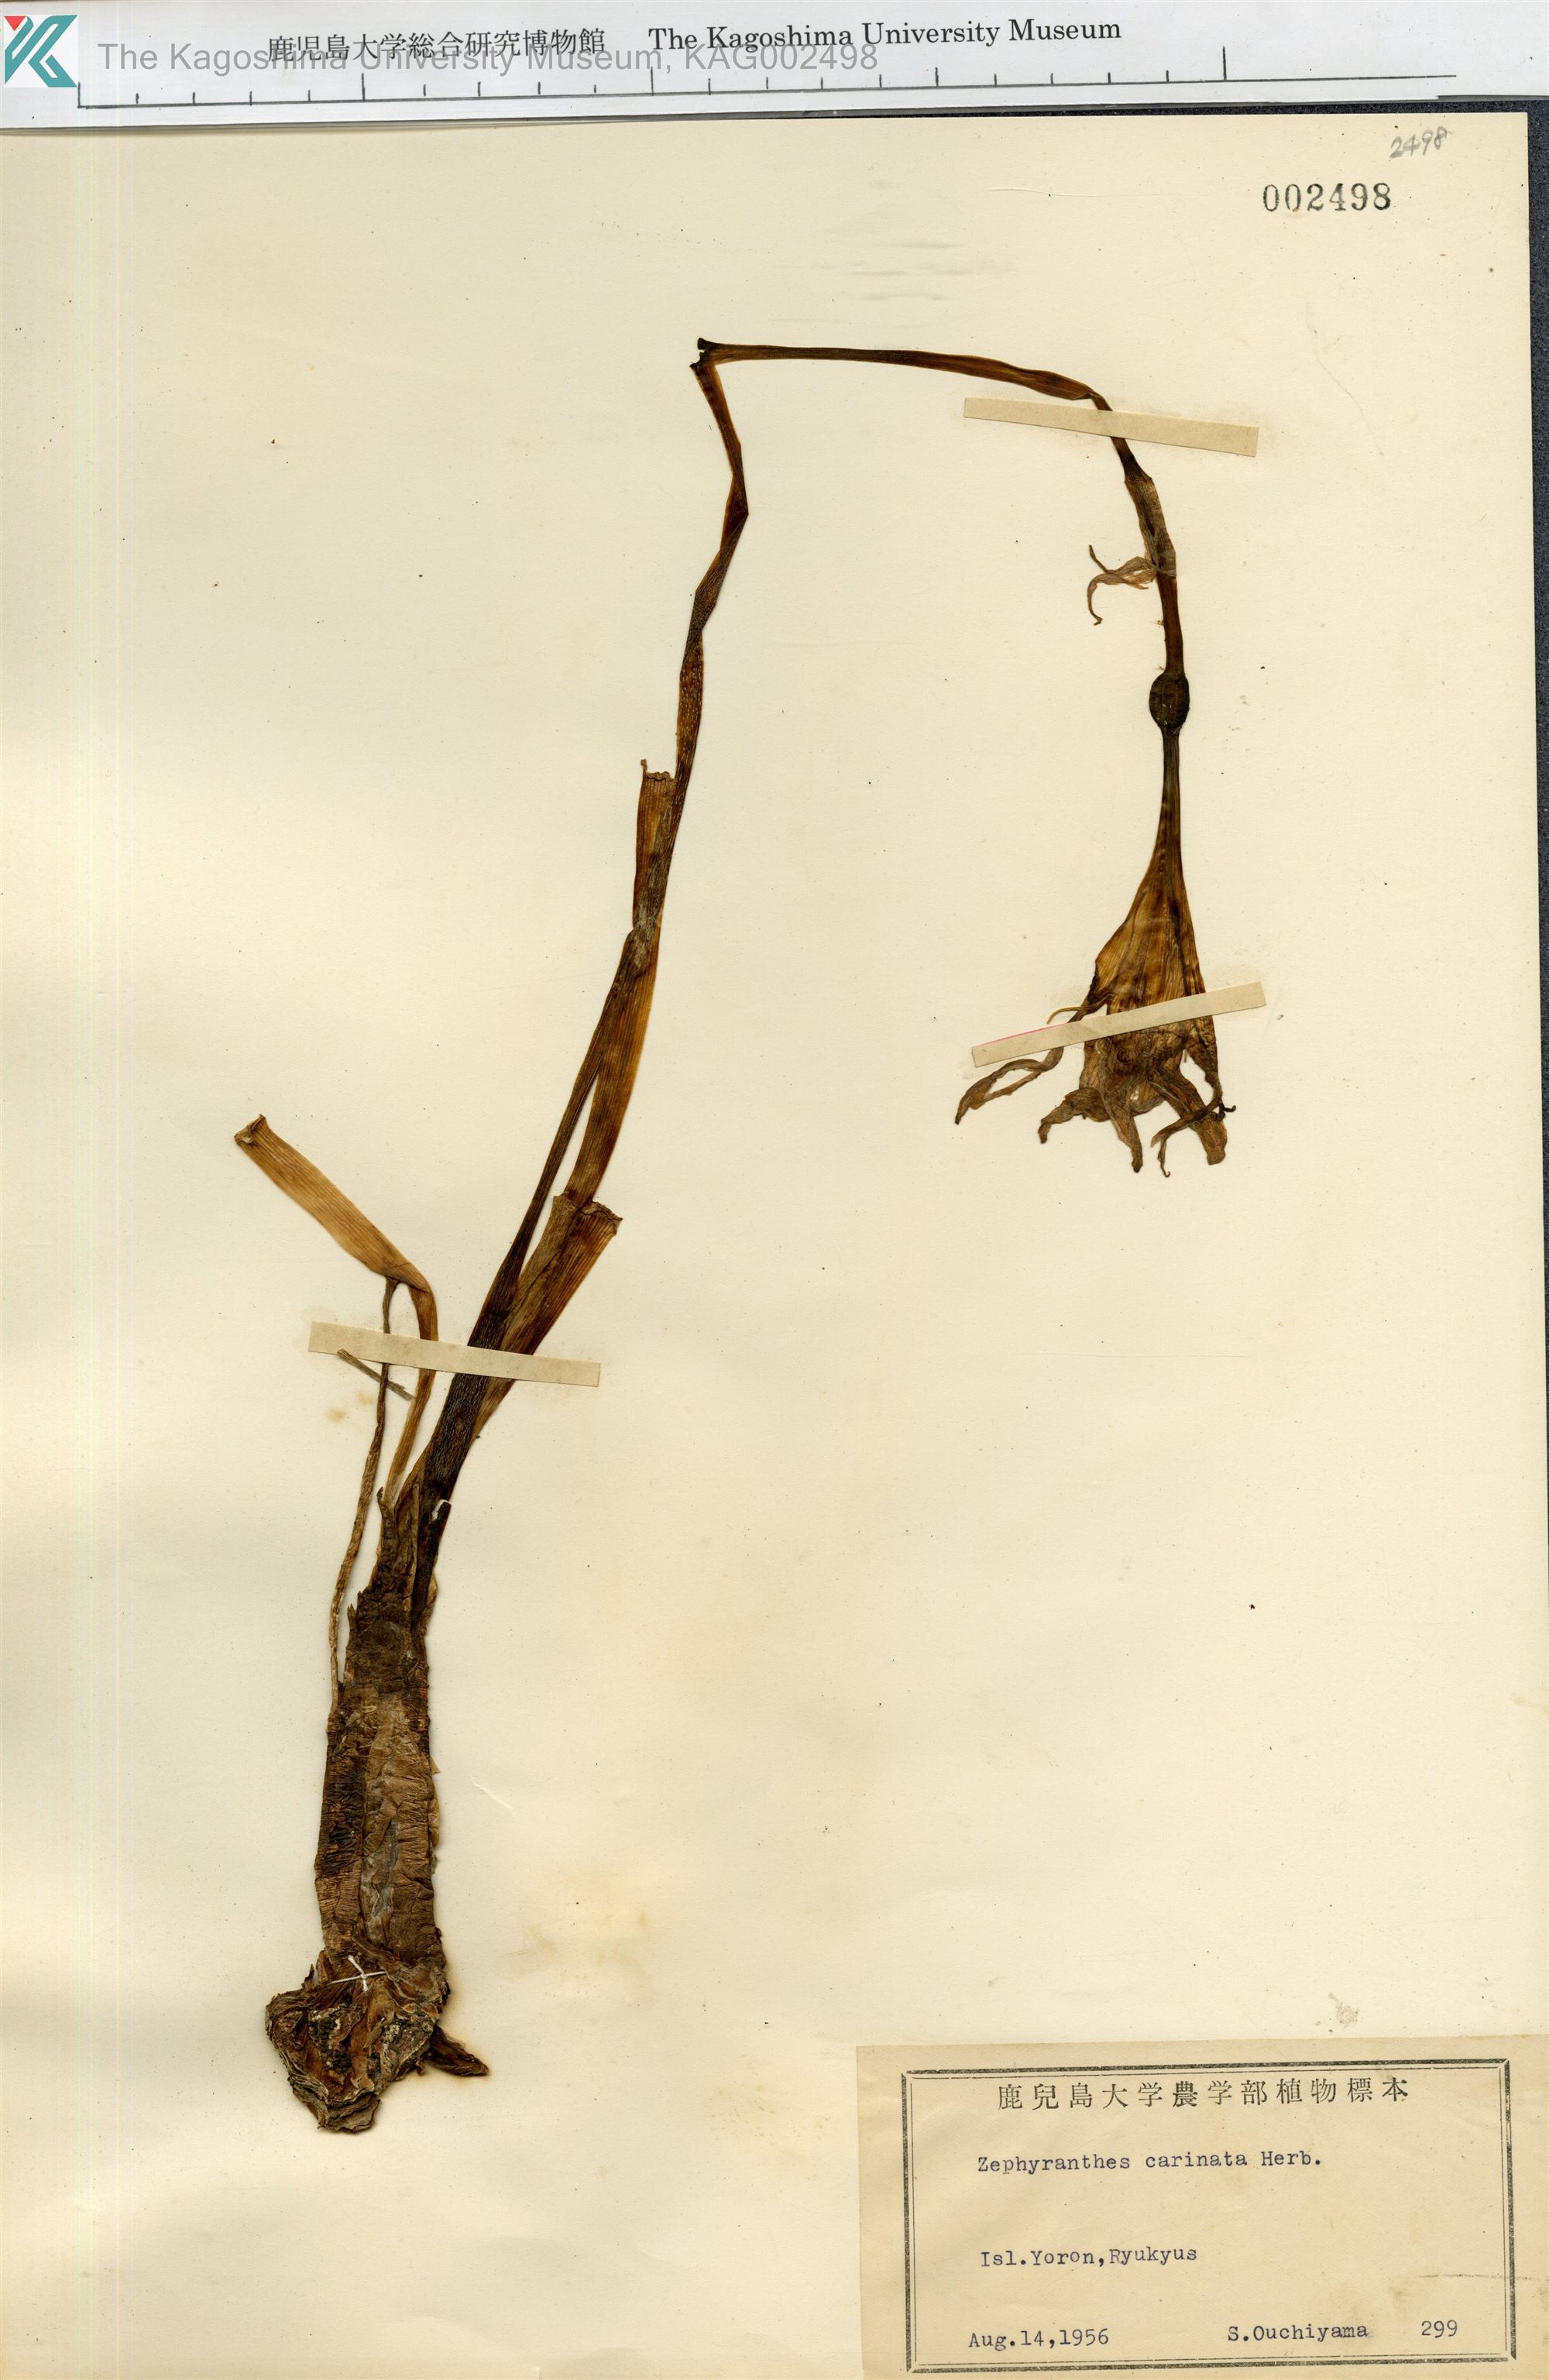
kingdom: Plantae
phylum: Tracheophyta
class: Liliopsida
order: Asparagales
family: Amaryllidaceae
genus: Zephyranthes
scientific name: Zephyranthes carinata
